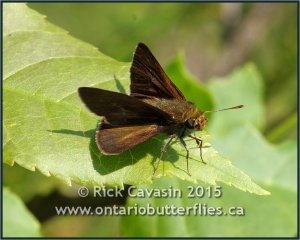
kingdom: Animalia
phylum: Arthropoda
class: Insecta
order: Lepidoptera
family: Hesperiidae
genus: Euphyes
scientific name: Euphyes vestris
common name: Dun Skipper
